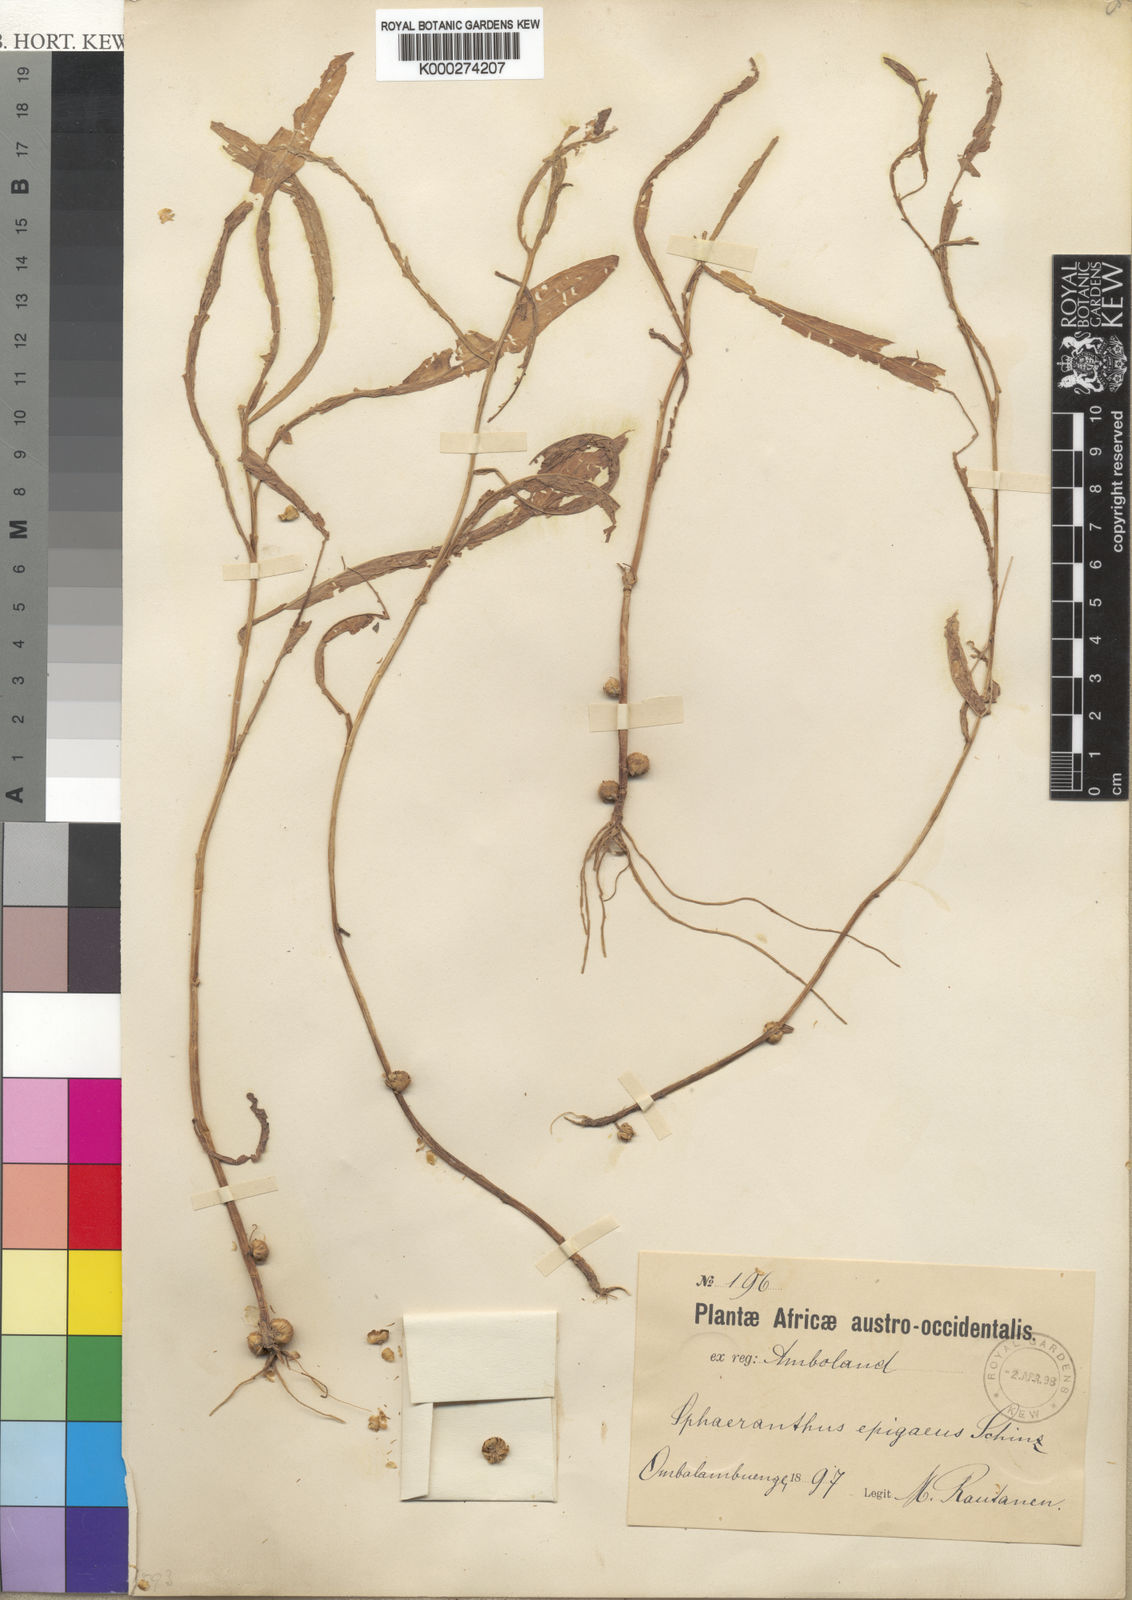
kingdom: Plantae
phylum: Tracheophyta
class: Magnoliopsida
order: Asterales
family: Asteraceae
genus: Sphaeranthus
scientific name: Sphaeranthus epigaeus
